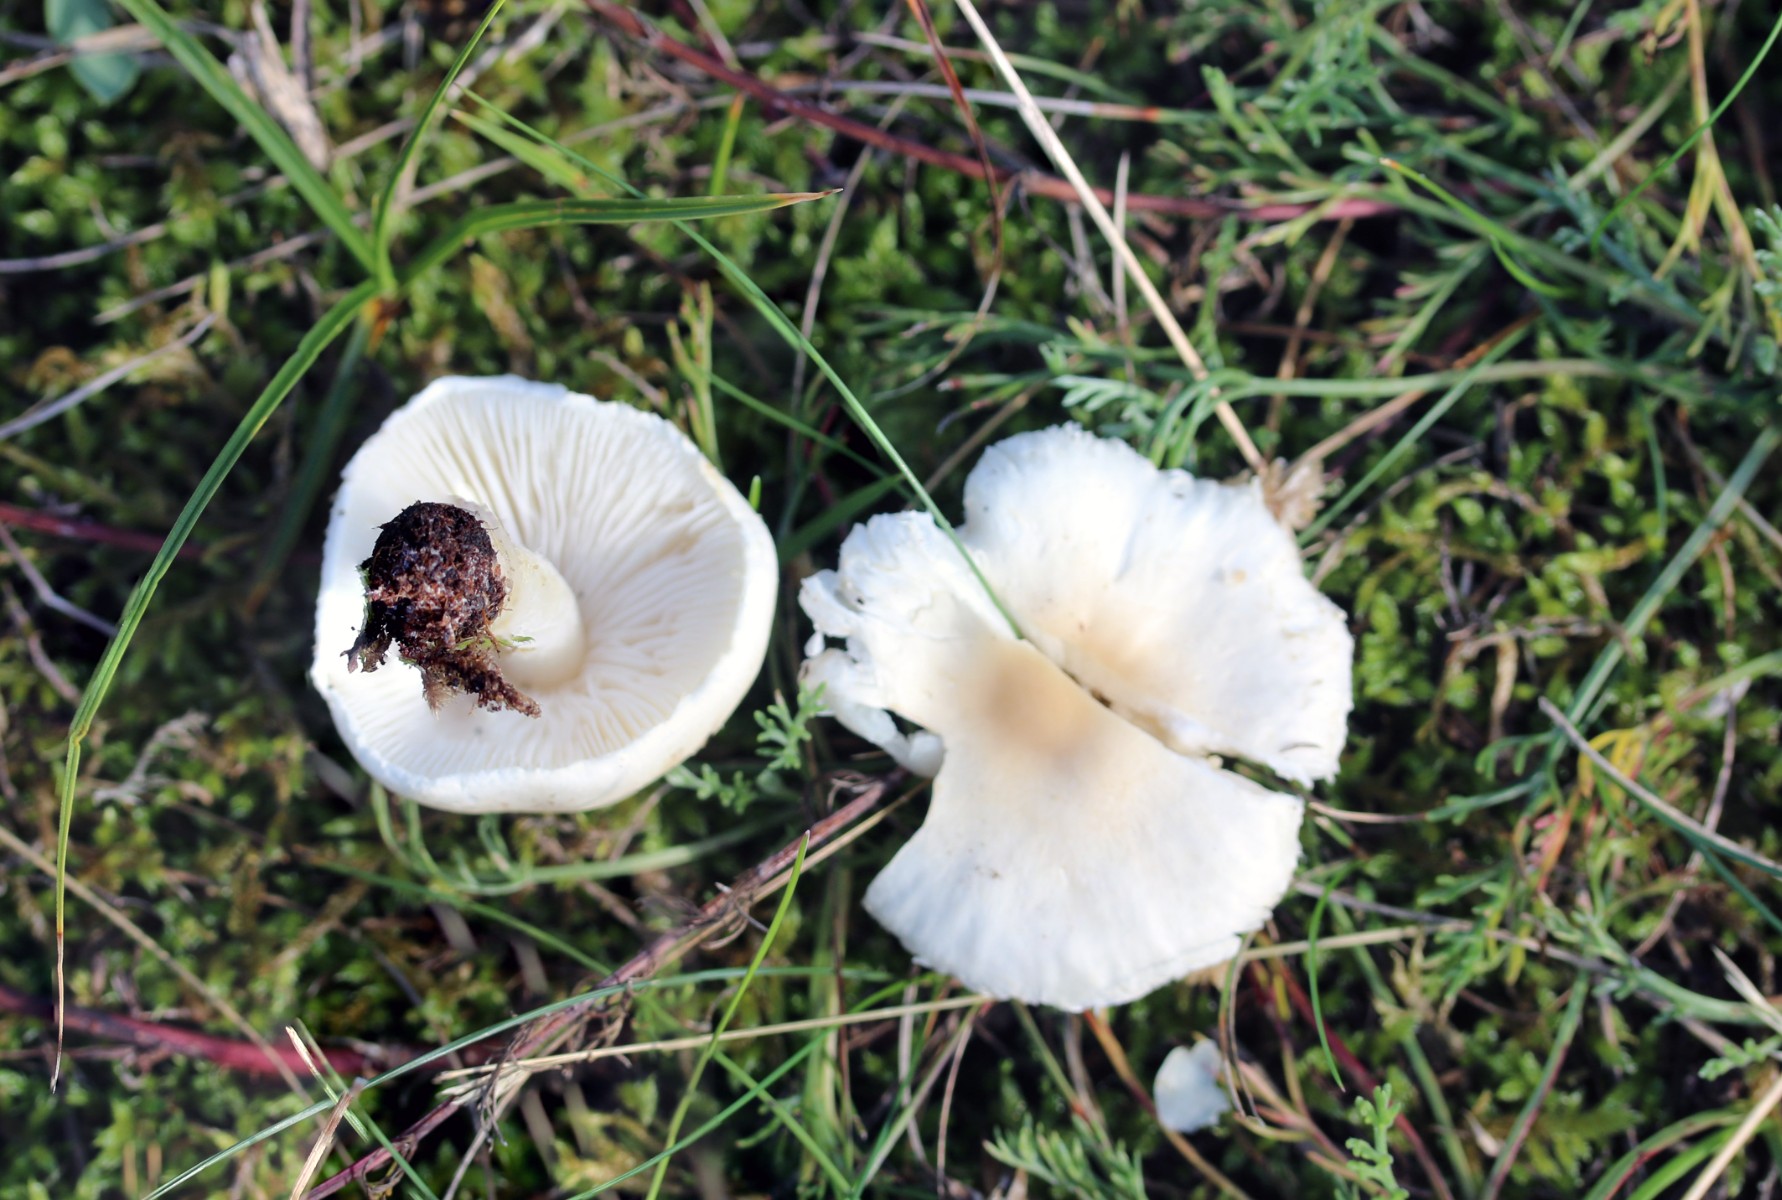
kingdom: Fungi
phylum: Basidiomycota
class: Agaricomycetes
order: Agaricales
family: Agaricaceae
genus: Lepiota
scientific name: Lepiota erminea
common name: hvid parasolhat
